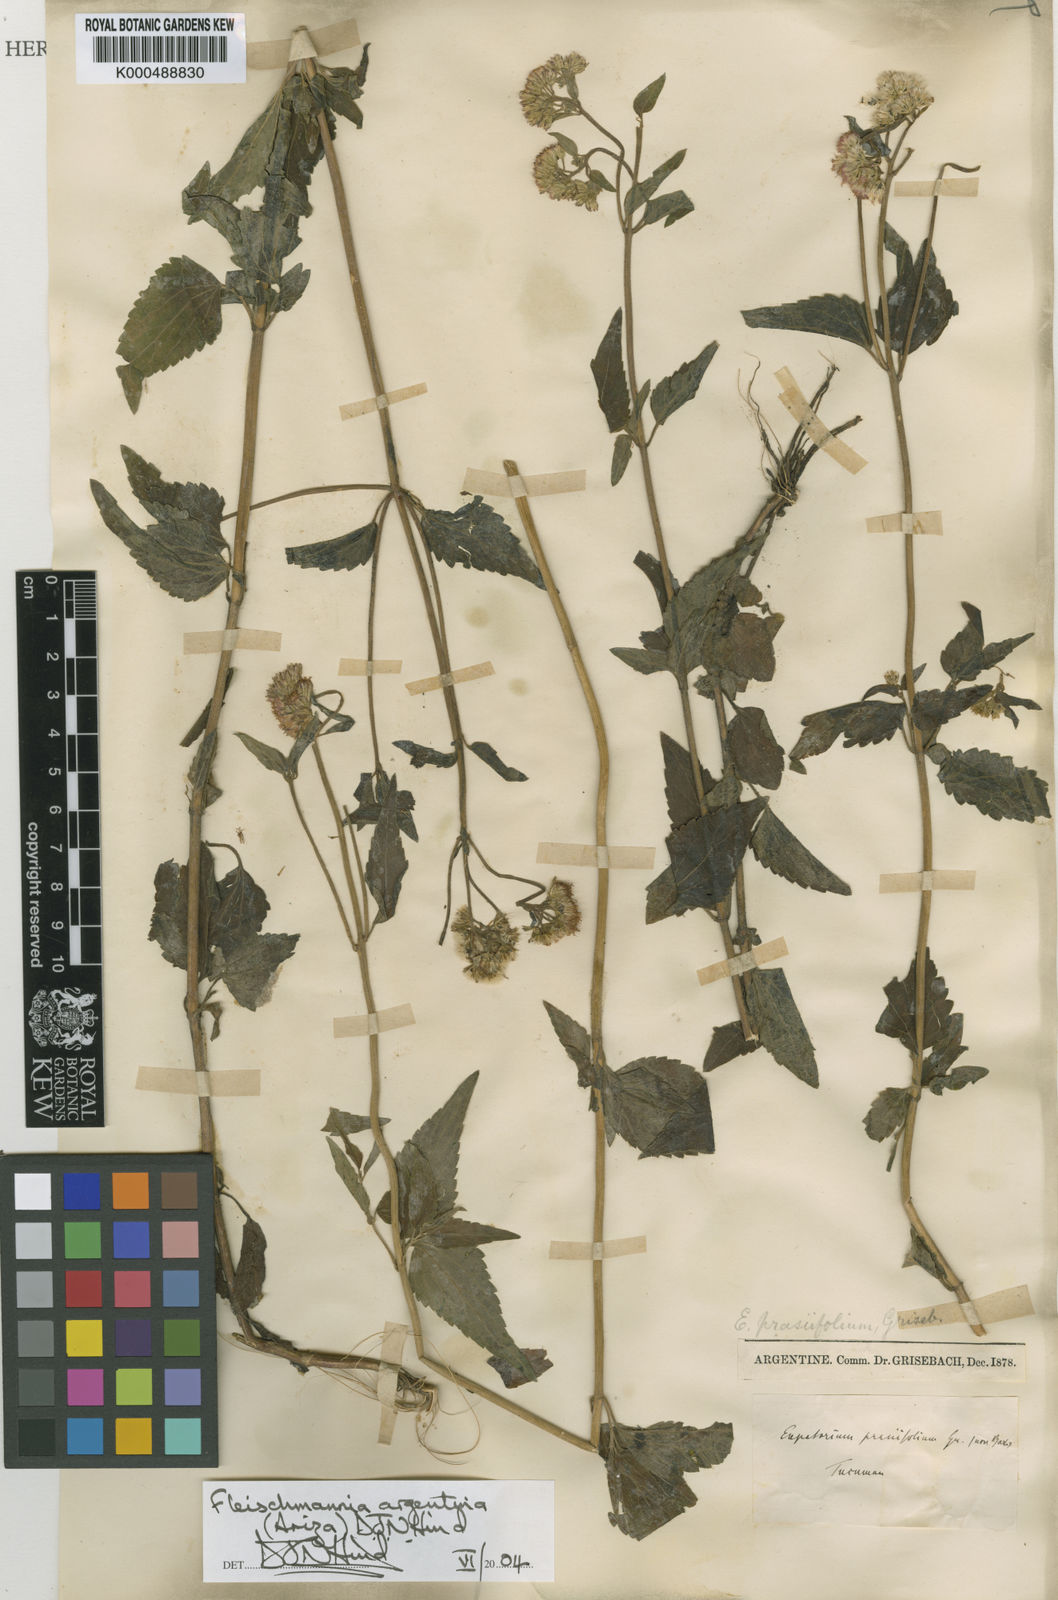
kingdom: Plantae
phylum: Tracheophyta
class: Magnoliopsida
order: Asterales
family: Asteraceae
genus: Fleischmannia
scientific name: Fleischmannia
